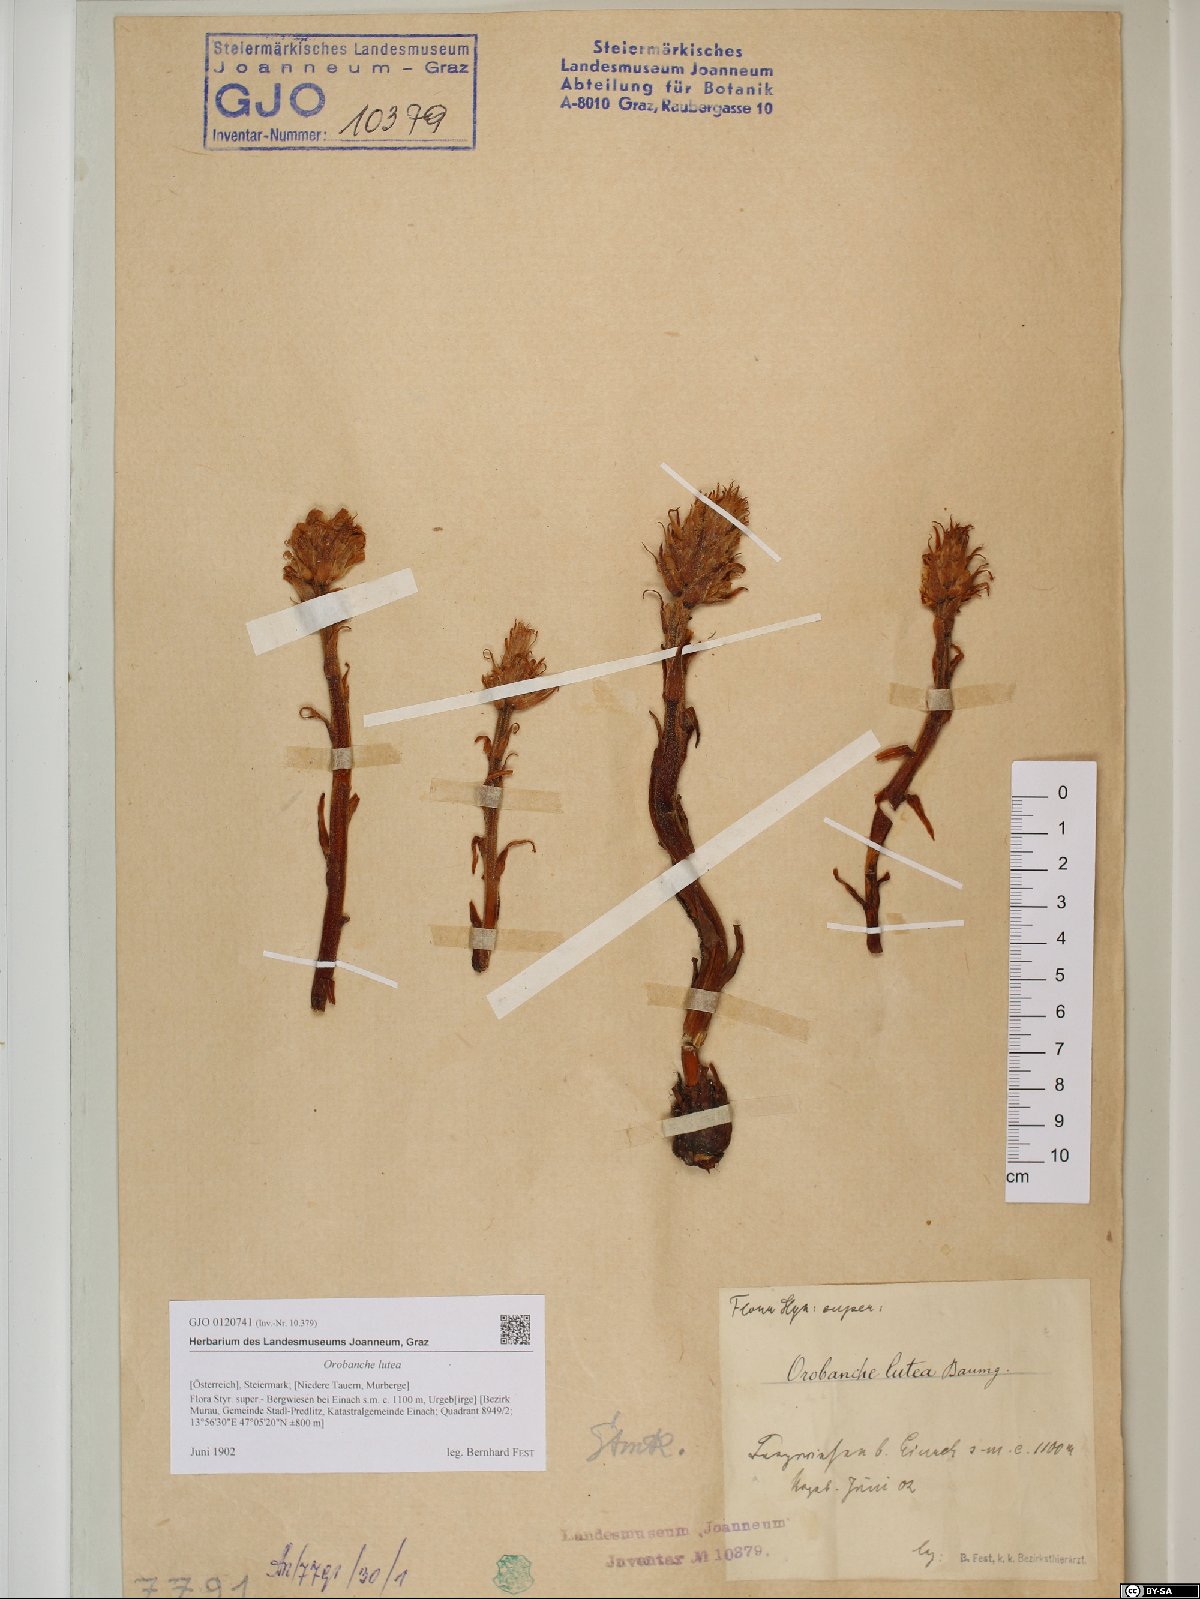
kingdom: Plantae
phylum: Tracheophyta
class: Magnoliopsida
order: Lamiales
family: Orobanchaceae
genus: Orobanche
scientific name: Orobanche lutea
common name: Yellow broomrape
